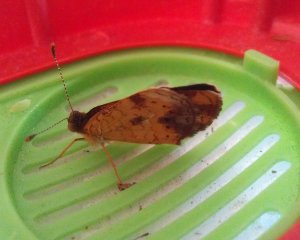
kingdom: Animalia
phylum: Arthropoda
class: Insecta
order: Lepidoptera
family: Nymphalidae
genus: Phyciodes
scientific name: Phyciodes tharos
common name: Northern Crescent
